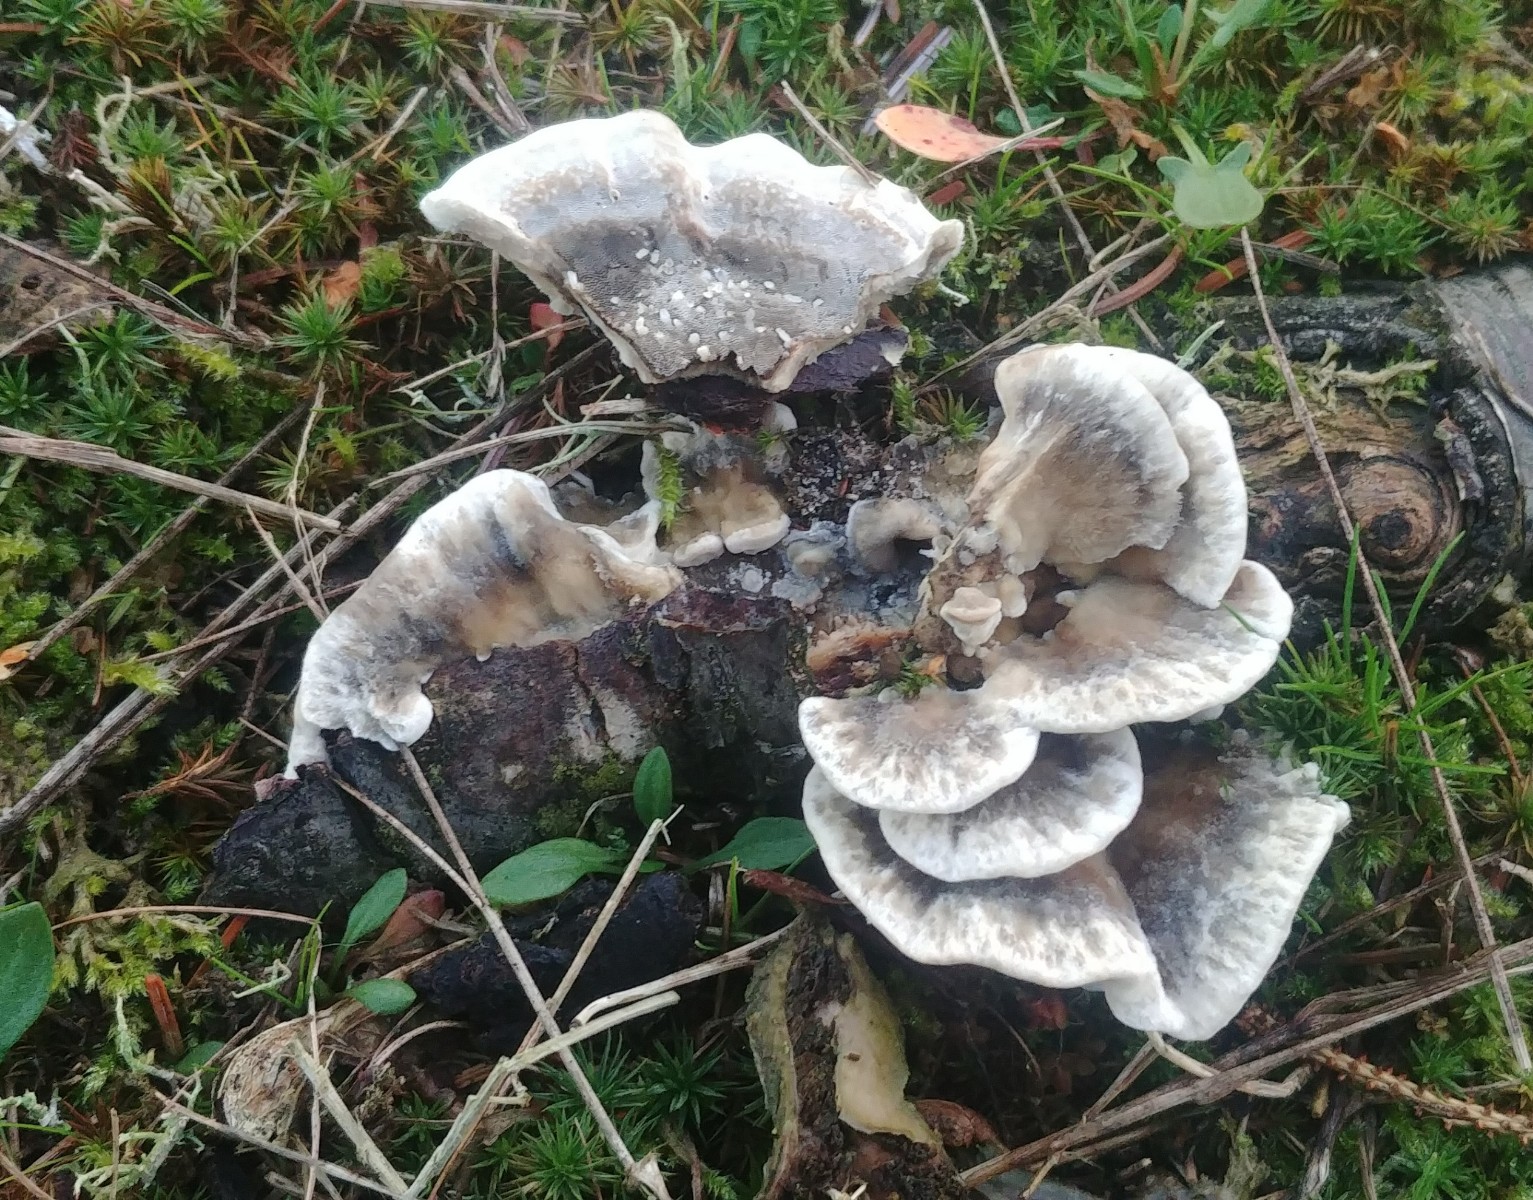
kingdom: Fungi
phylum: Basidiomycota
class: Agaricomycetes
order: Polyporales
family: Phanerochaetaceae
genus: Bjerkandera
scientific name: Bjerkandera adusta
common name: sveden sodporesvamp
